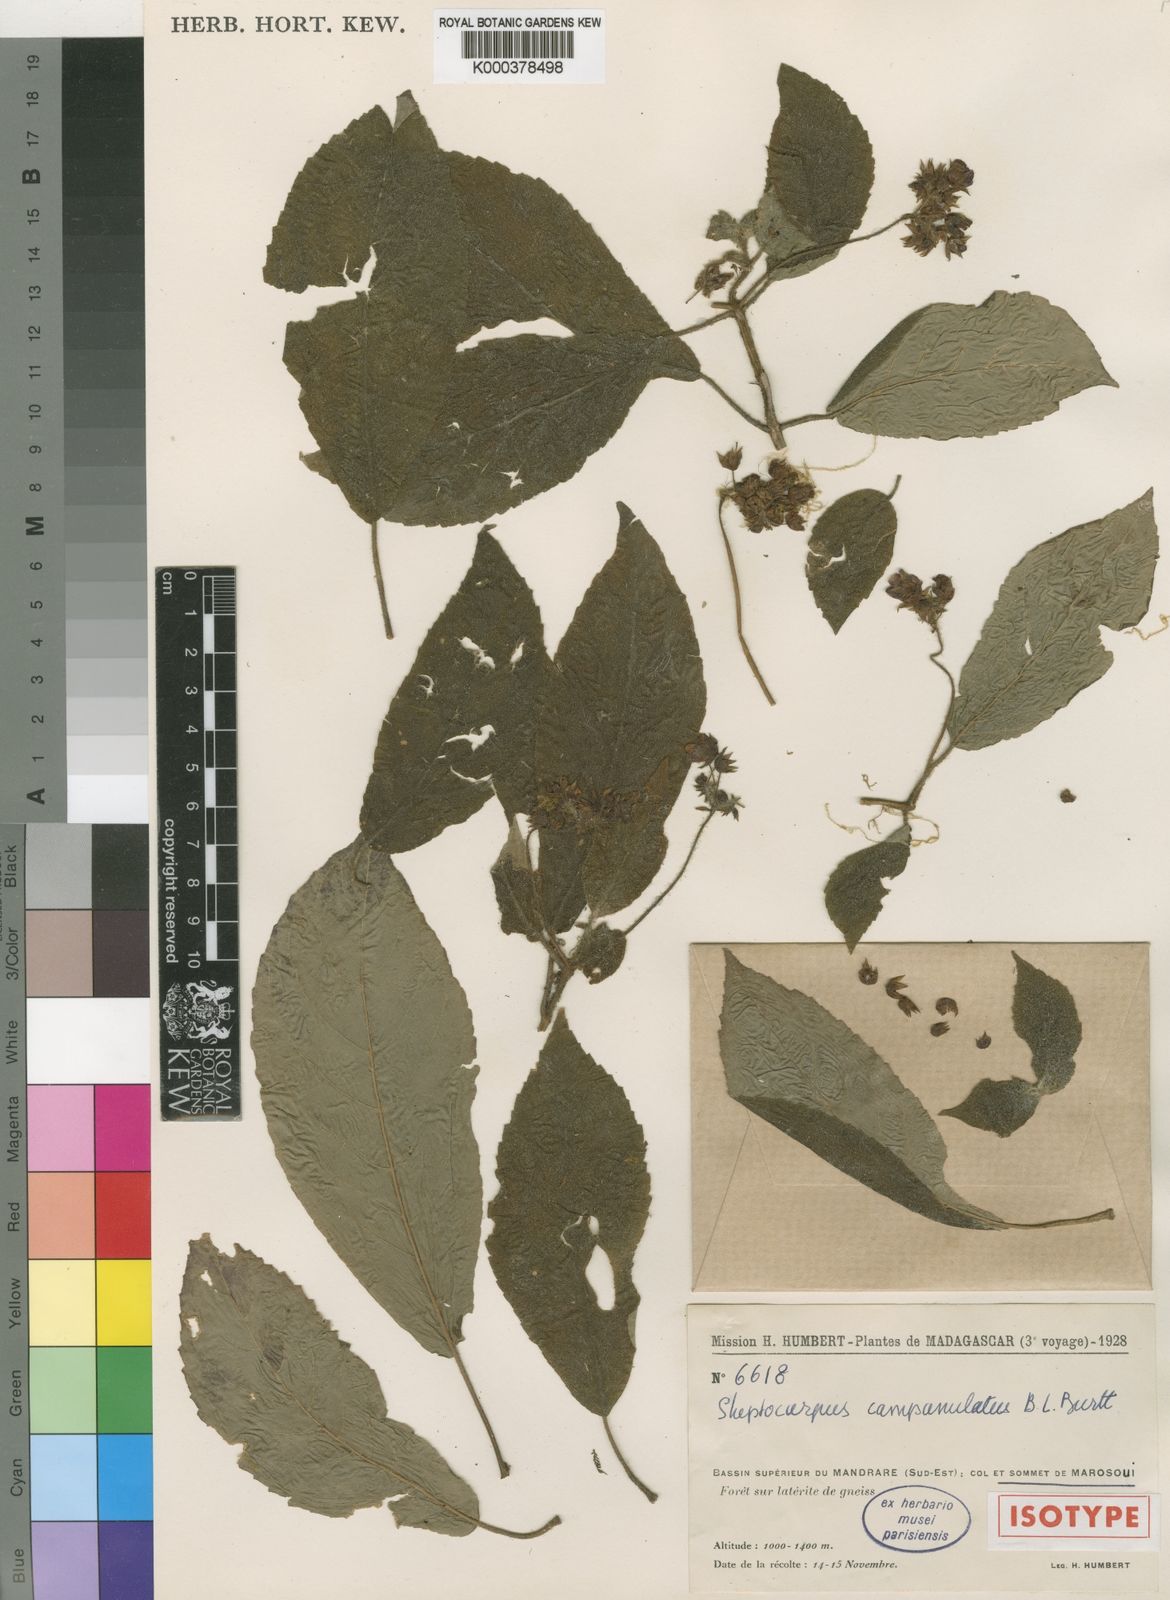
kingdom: Plantae
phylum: Tracheophyta
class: Magnoliopsida
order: Lamiales
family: Gesneriaceae
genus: Streptocarpus
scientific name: Streptocarpus campanulatus
